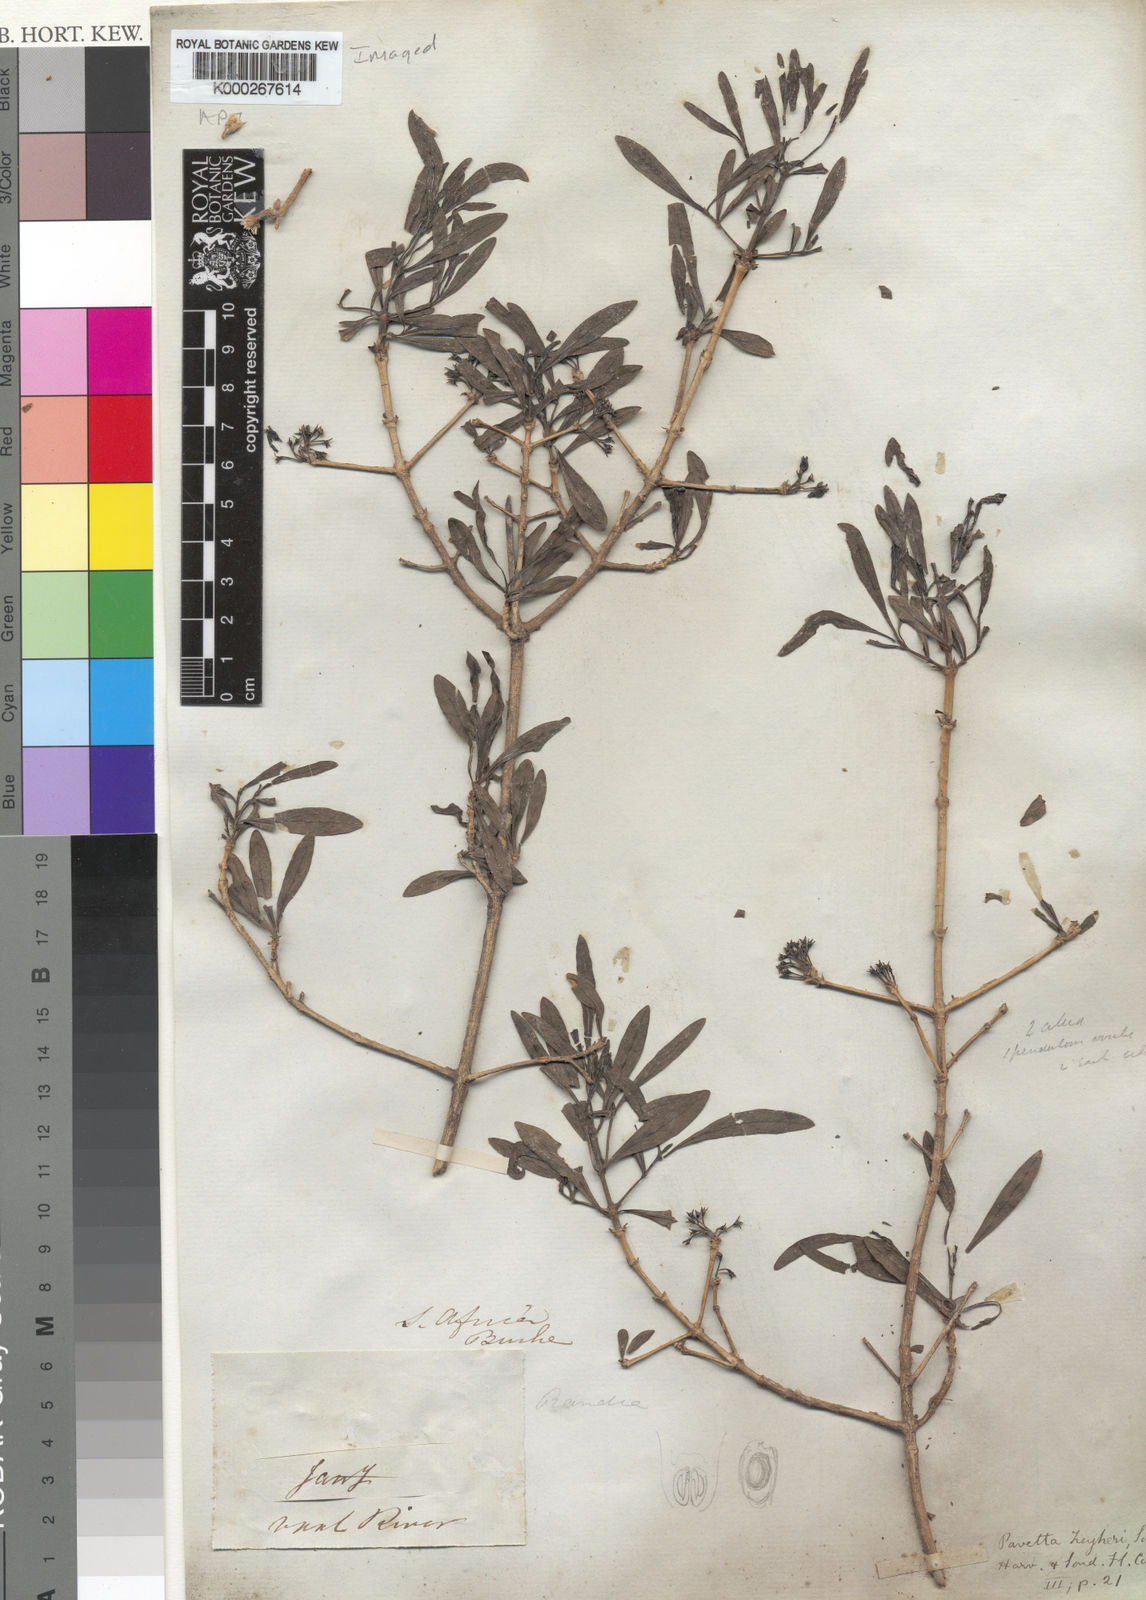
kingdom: Plantae
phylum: Tracheophyta
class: Magnoliopsida
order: Gentianales
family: Rubiaceae
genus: Pavetta
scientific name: Pavetta zeyheri
